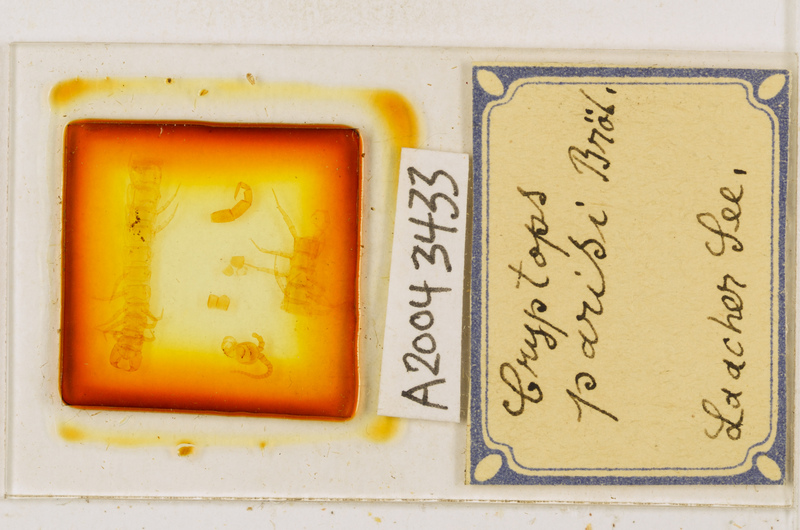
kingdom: Animalia
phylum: Arthropoda
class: Chilopoda
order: Scolopendromorpha
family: Cryptopidae
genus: Cryptops
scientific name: Cryptops parisi
